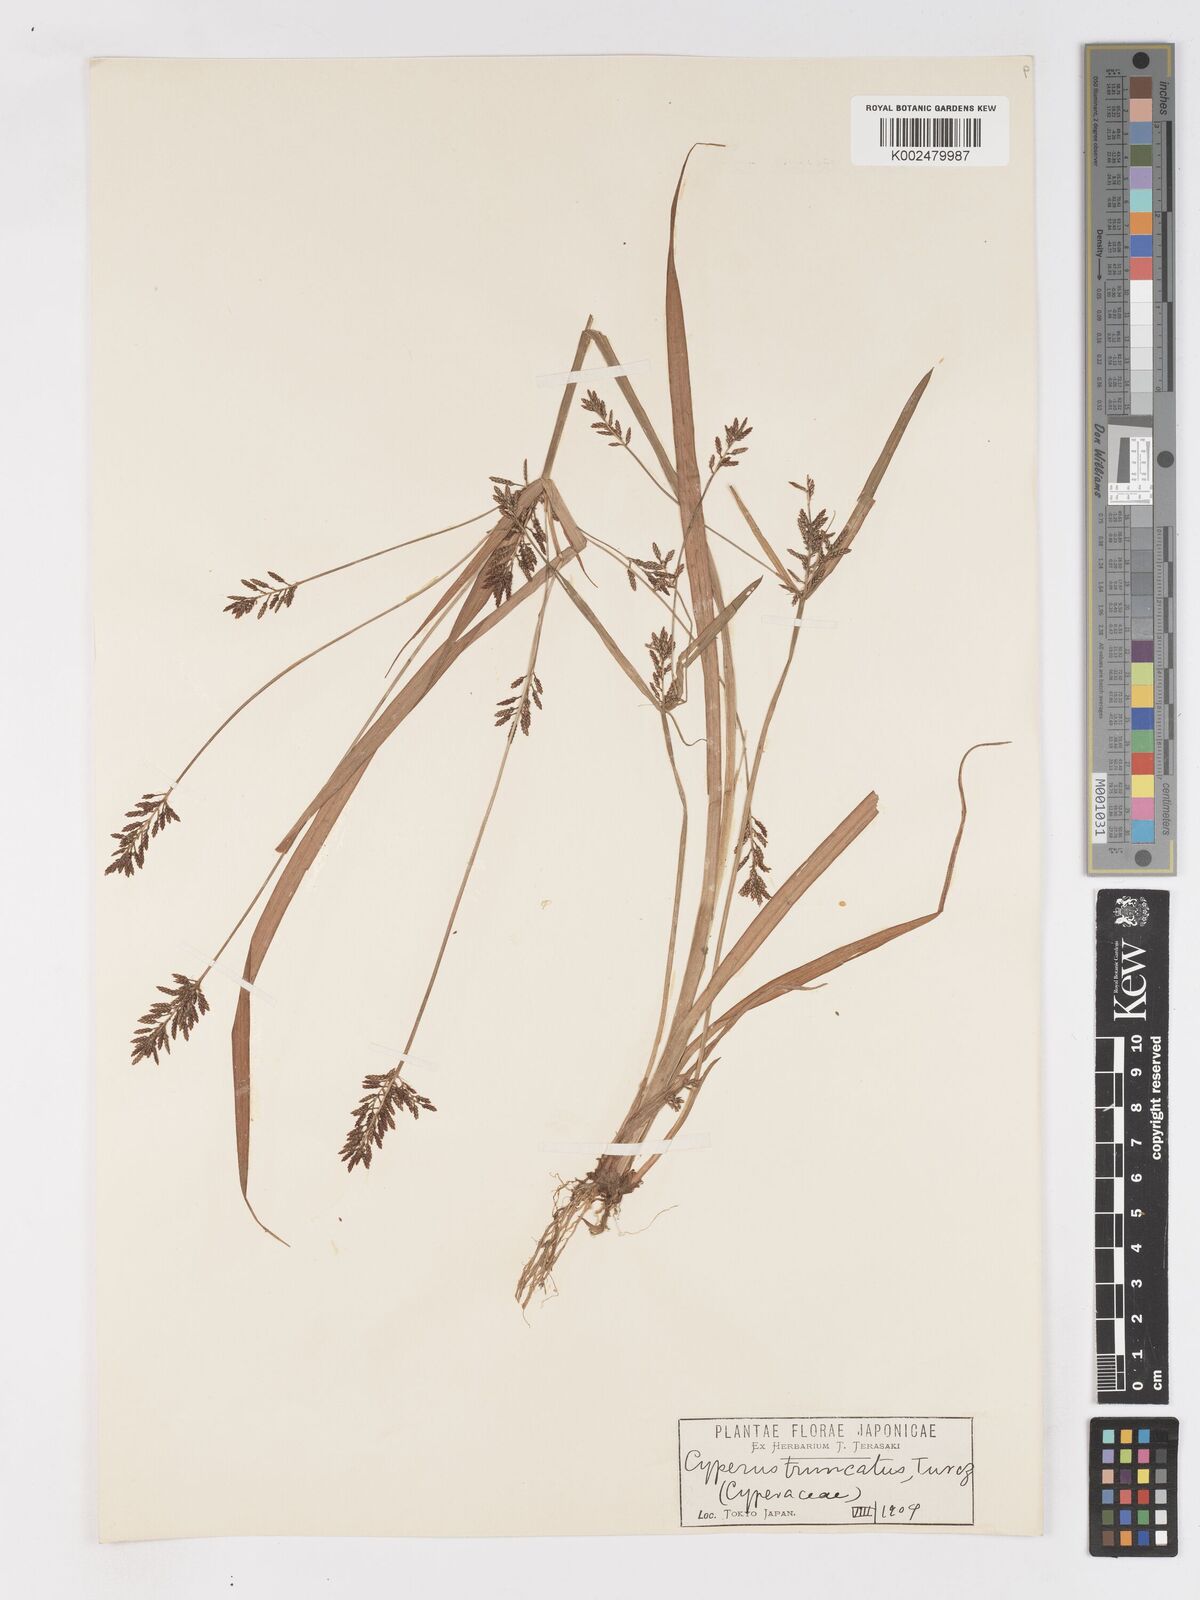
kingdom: Plantae
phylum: Tracheophyta
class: Liliopsida
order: Poales
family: Cyperaceae
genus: Cyperus
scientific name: Cyperus orthostachyus
